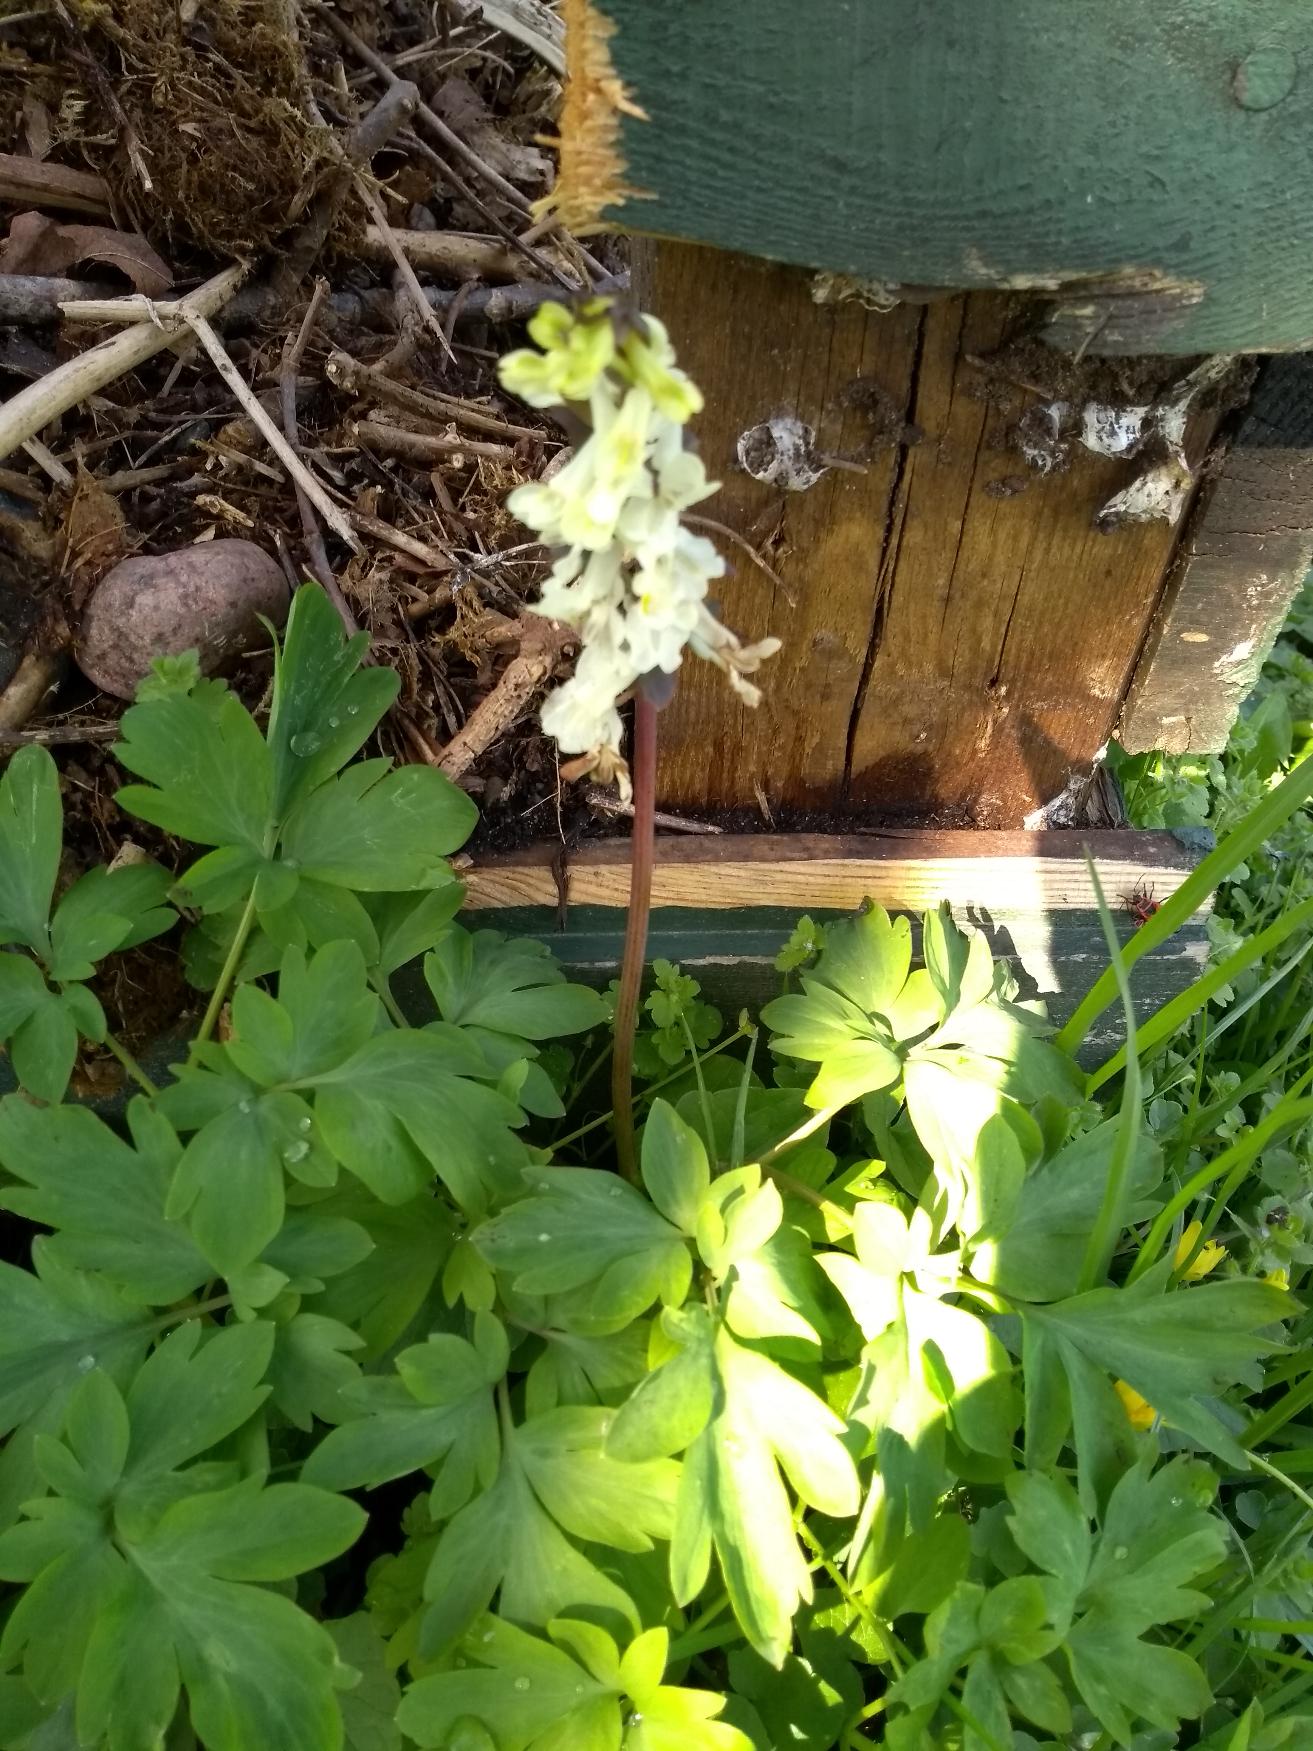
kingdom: Plantae
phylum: Tracheophyta
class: Magnoliopsida
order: Ranunculales
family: Papaveraceae
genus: Corydalis
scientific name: Corydalis cava
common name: Hulrodet lærkespore
